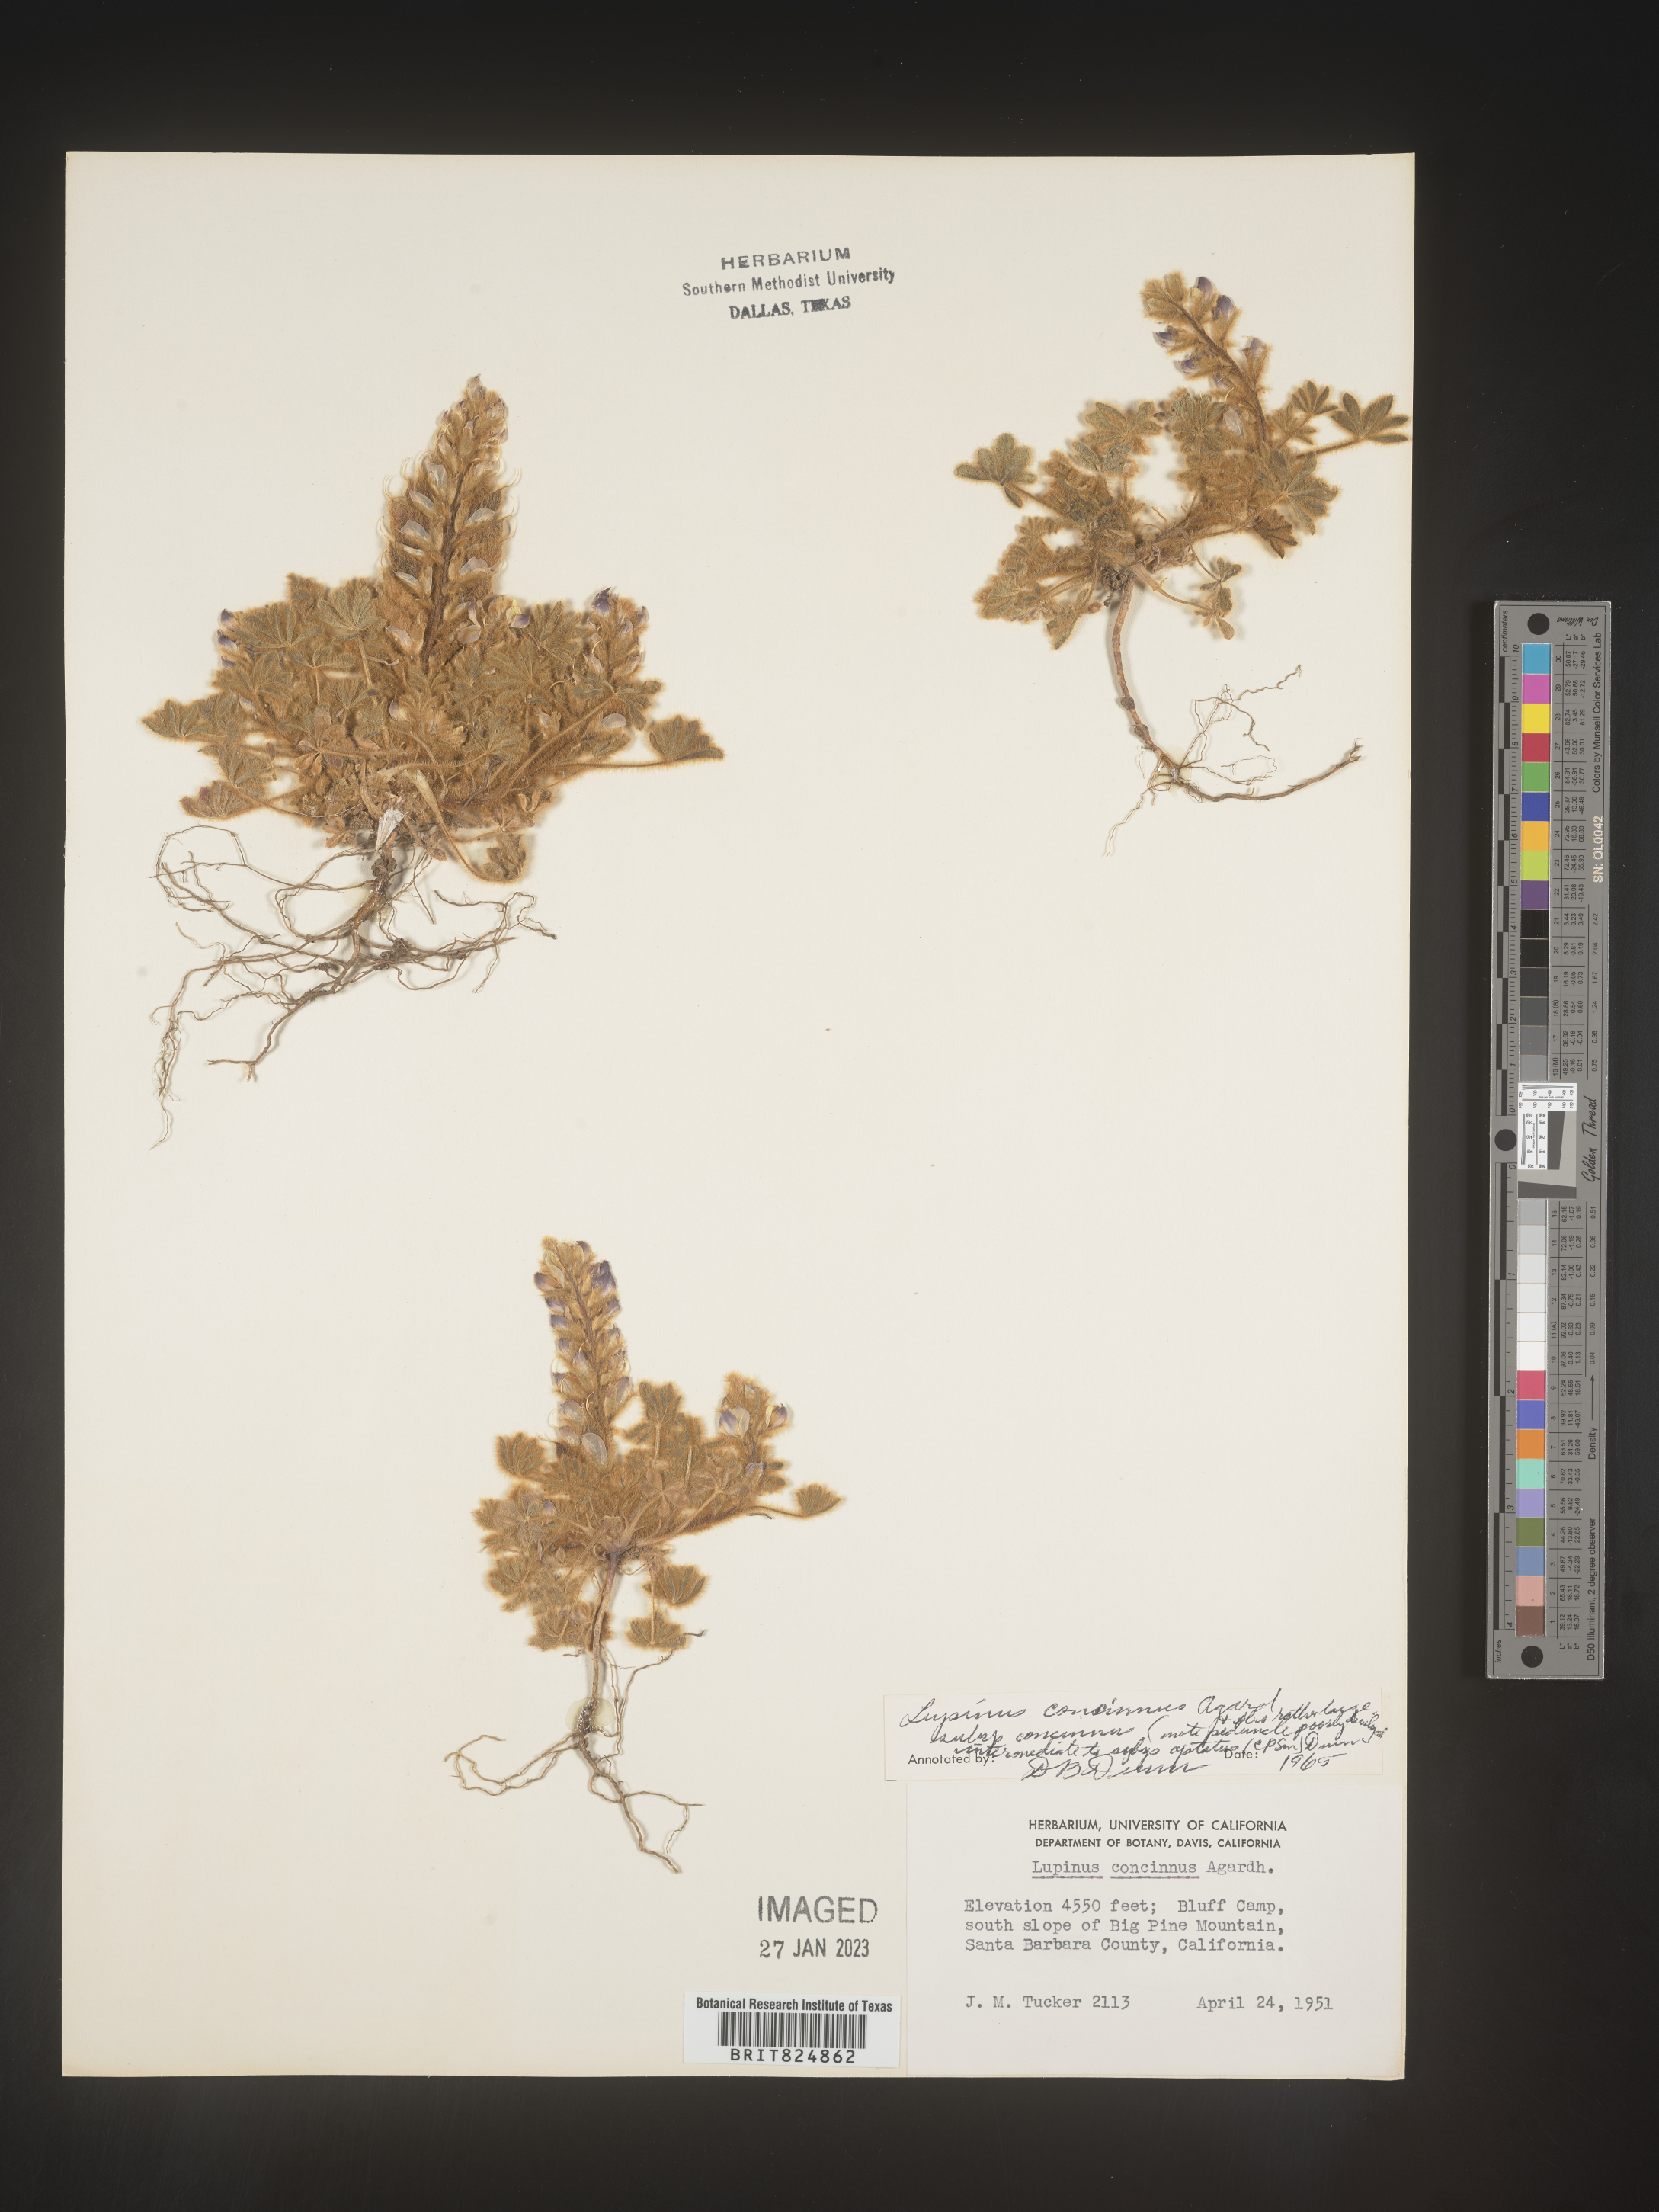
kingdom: Plantae
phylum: Tracheophyta
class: Magnoliopsida
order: Fabales
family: Fabaceae
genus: Lupinus
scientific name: Lupinus
